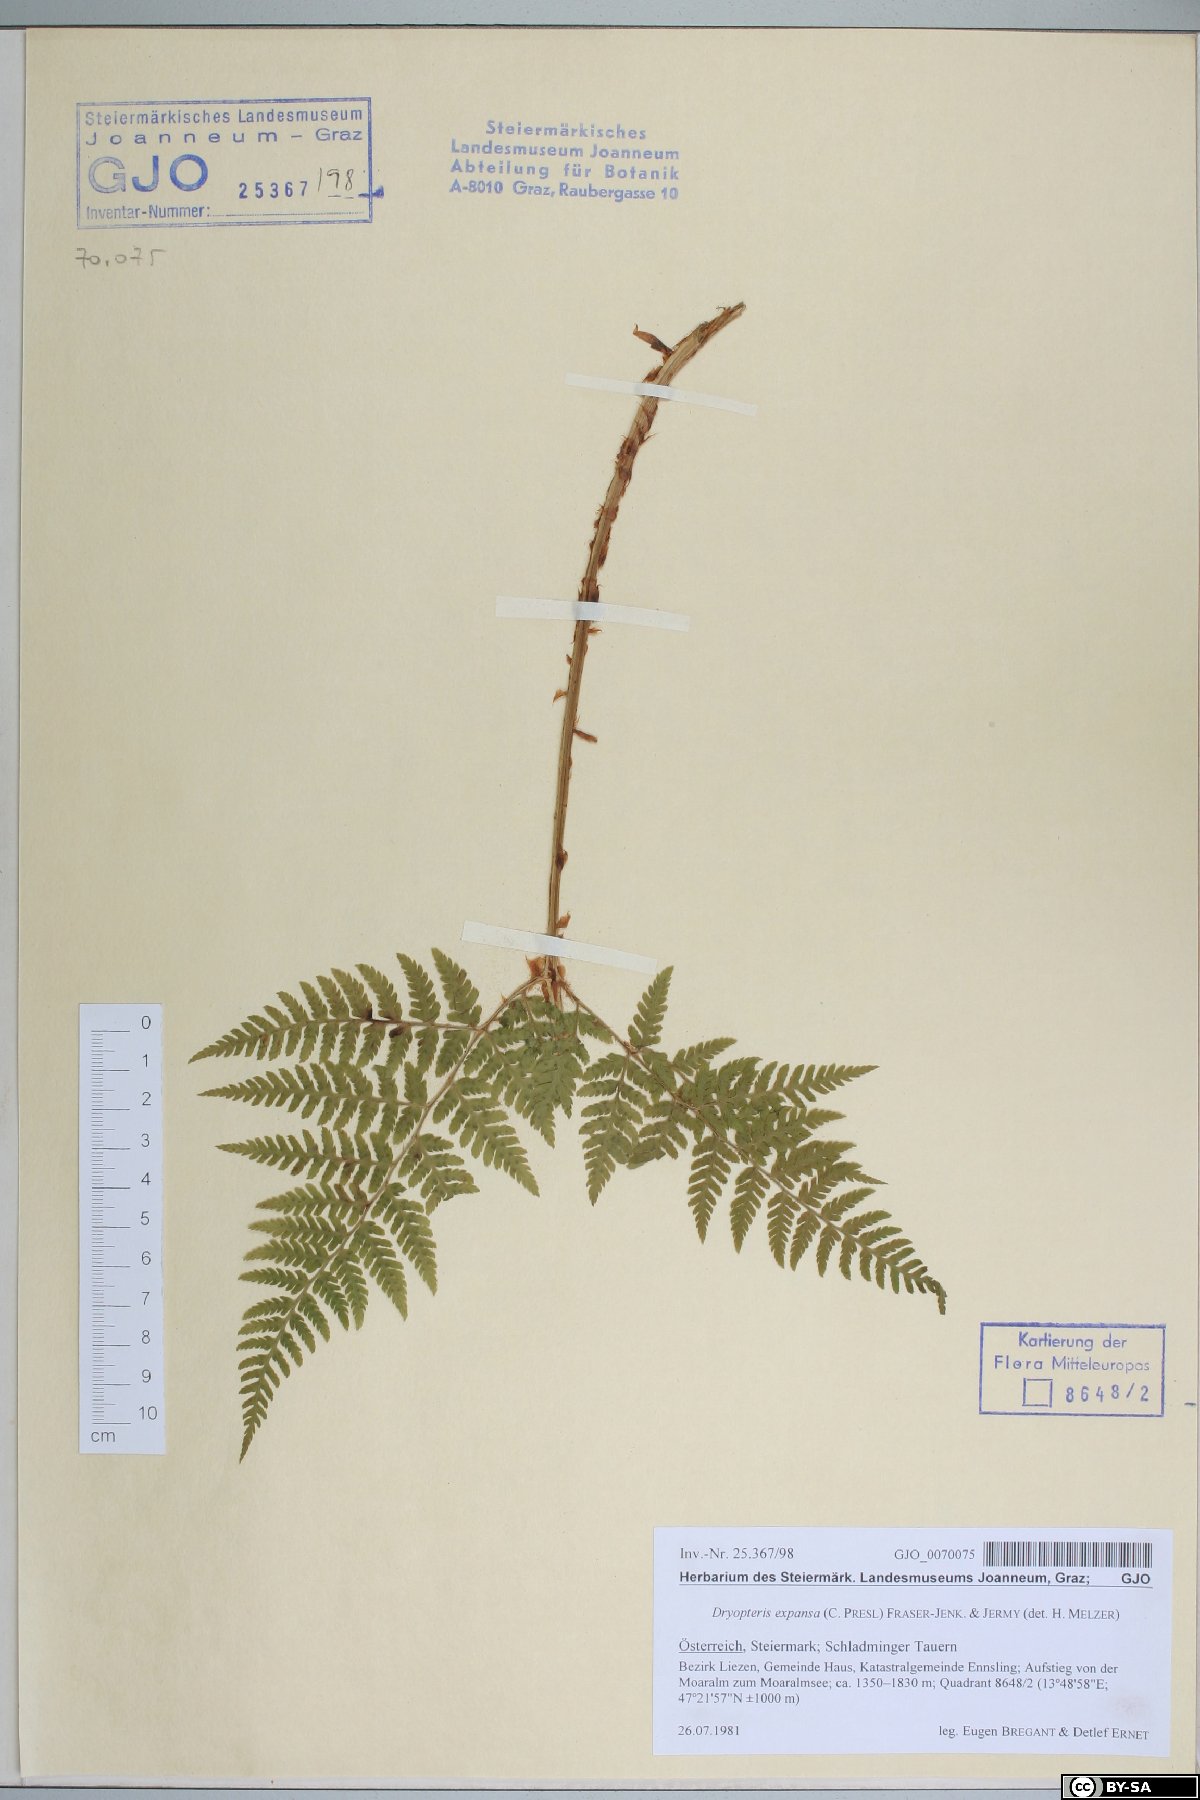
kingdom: Plantae
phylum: Tracheophyta
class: Polypodiopsida
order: Polypodiales
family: Dryopteridaceae
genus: Dryopteris
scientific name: Dryopteris expansa
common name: Northern buckler fern
